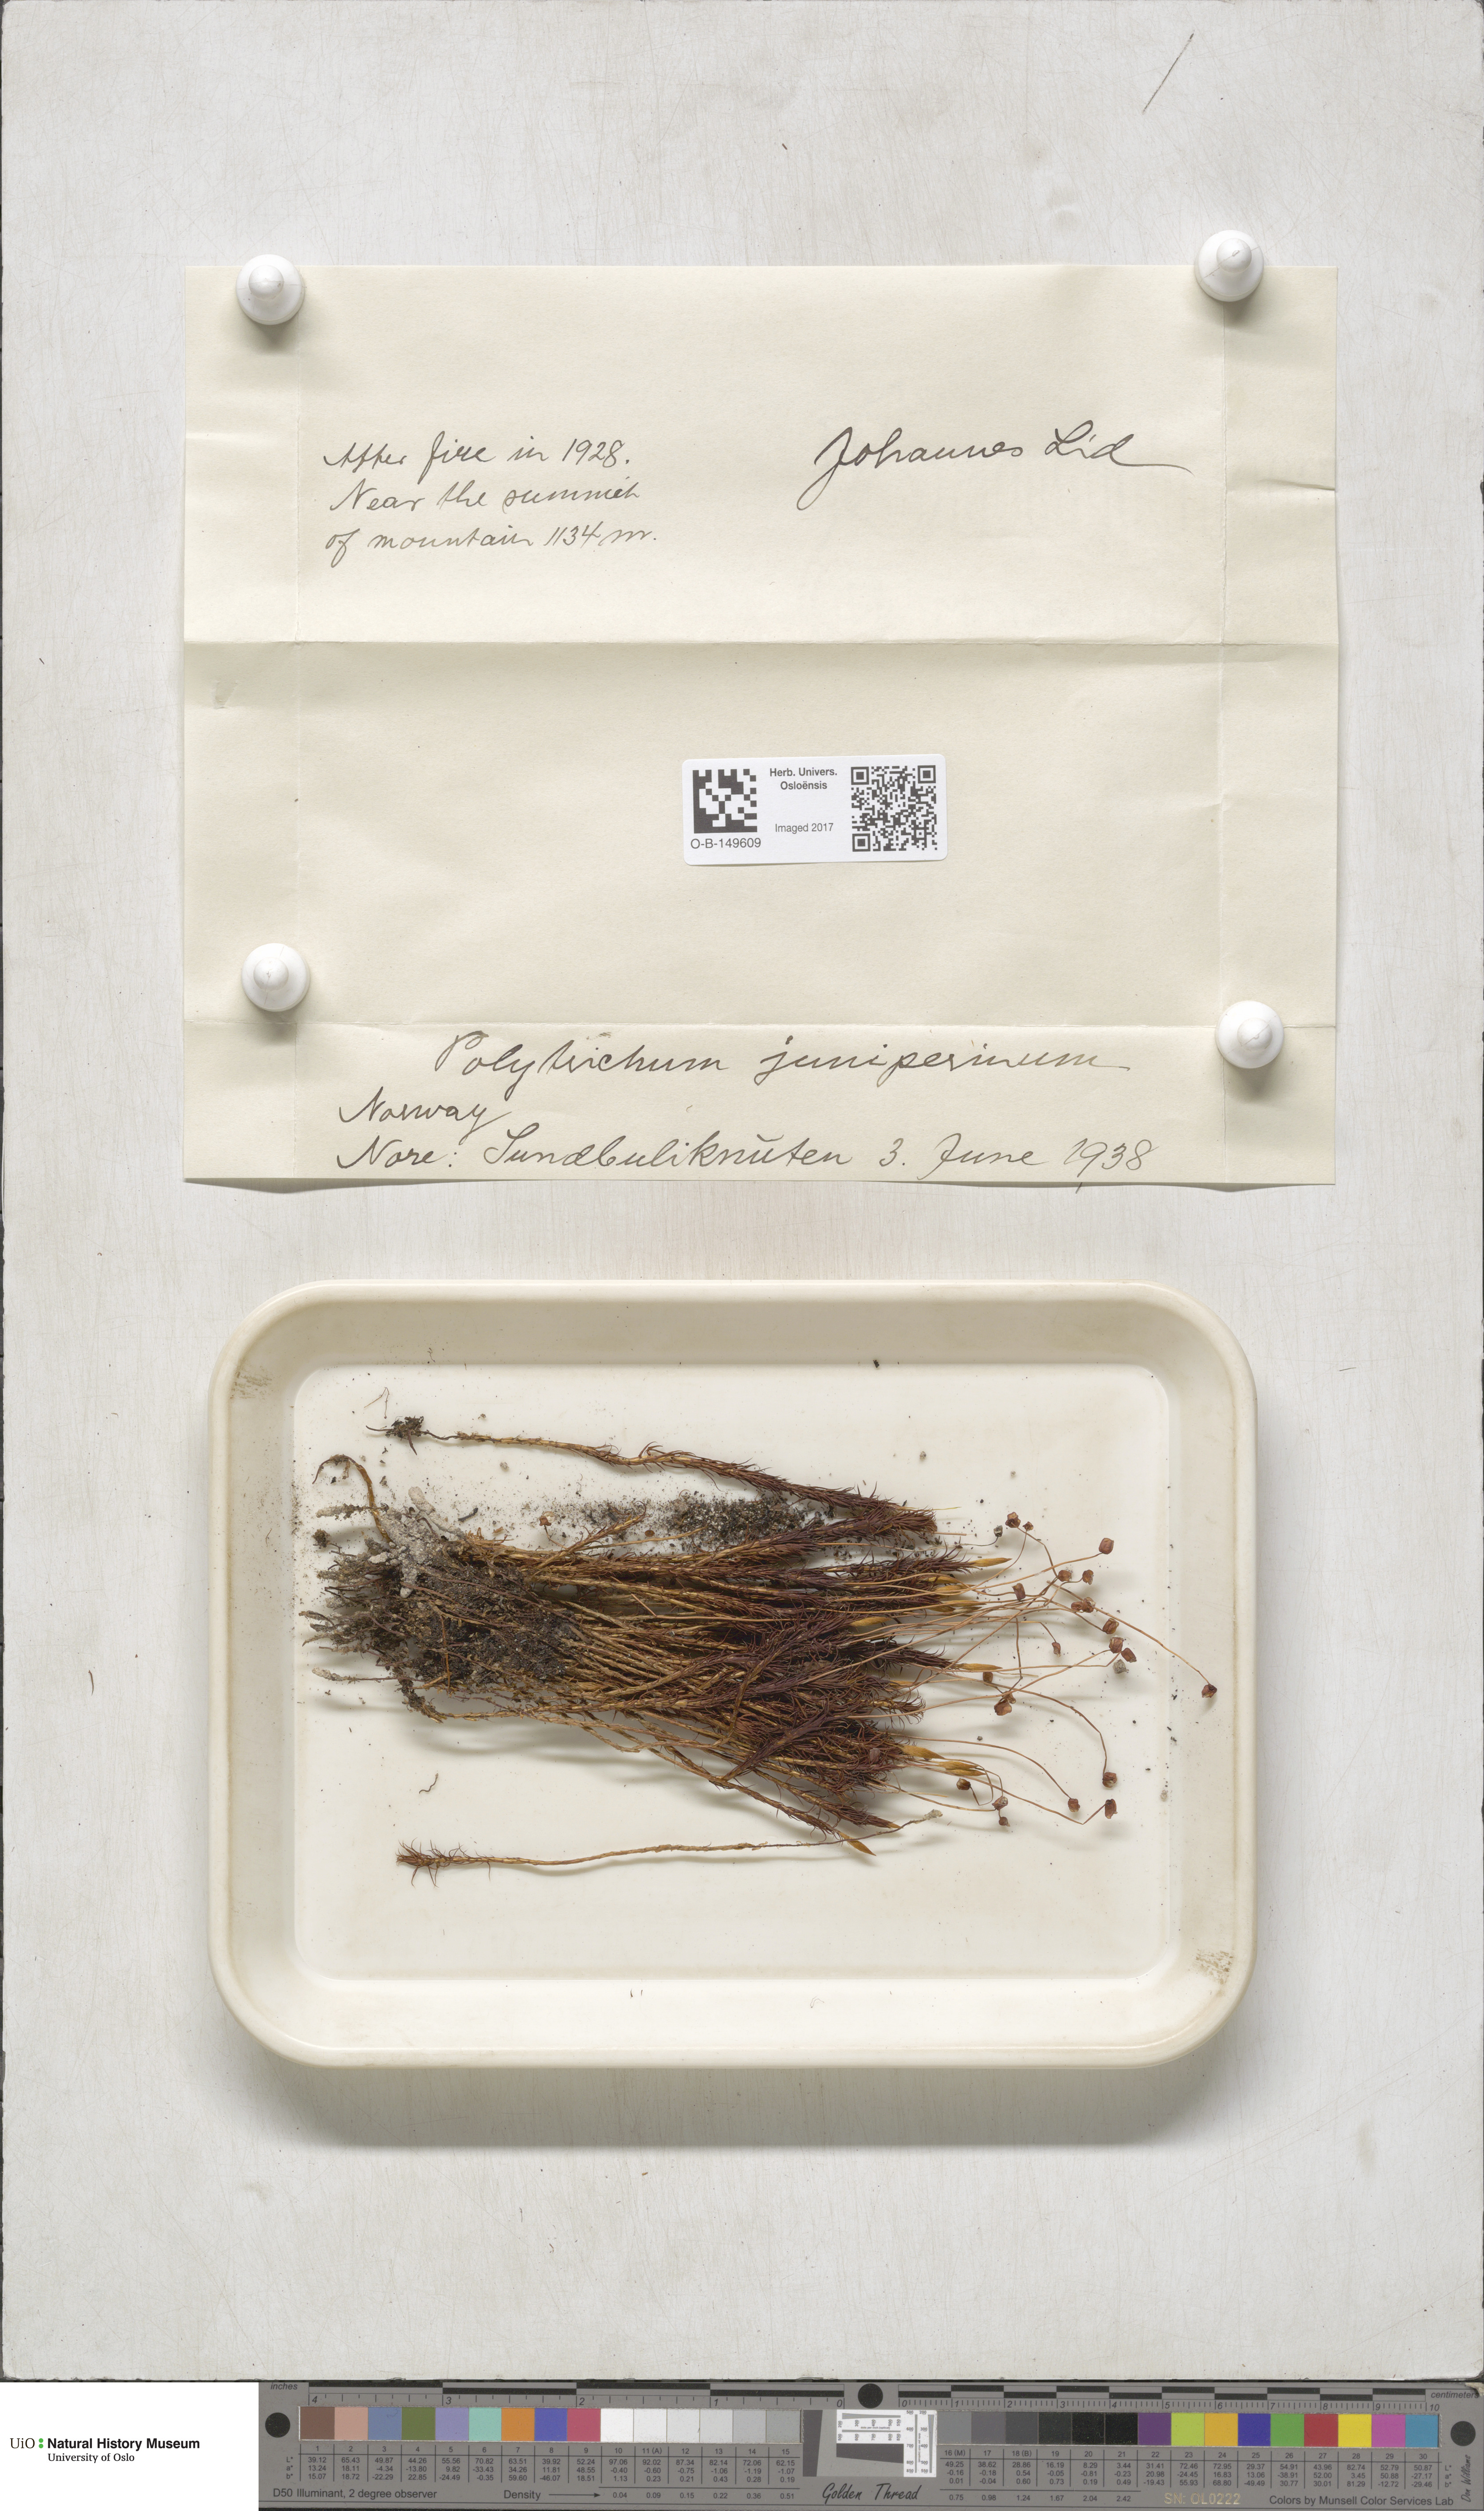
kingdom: Plantae
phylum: Bryophyta
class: Polytrichopsida
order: Polytrichales
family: Polytrichaceae
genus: Polytrichum
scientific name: Polytrichum juniperinum
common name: Juniper haircap moss
